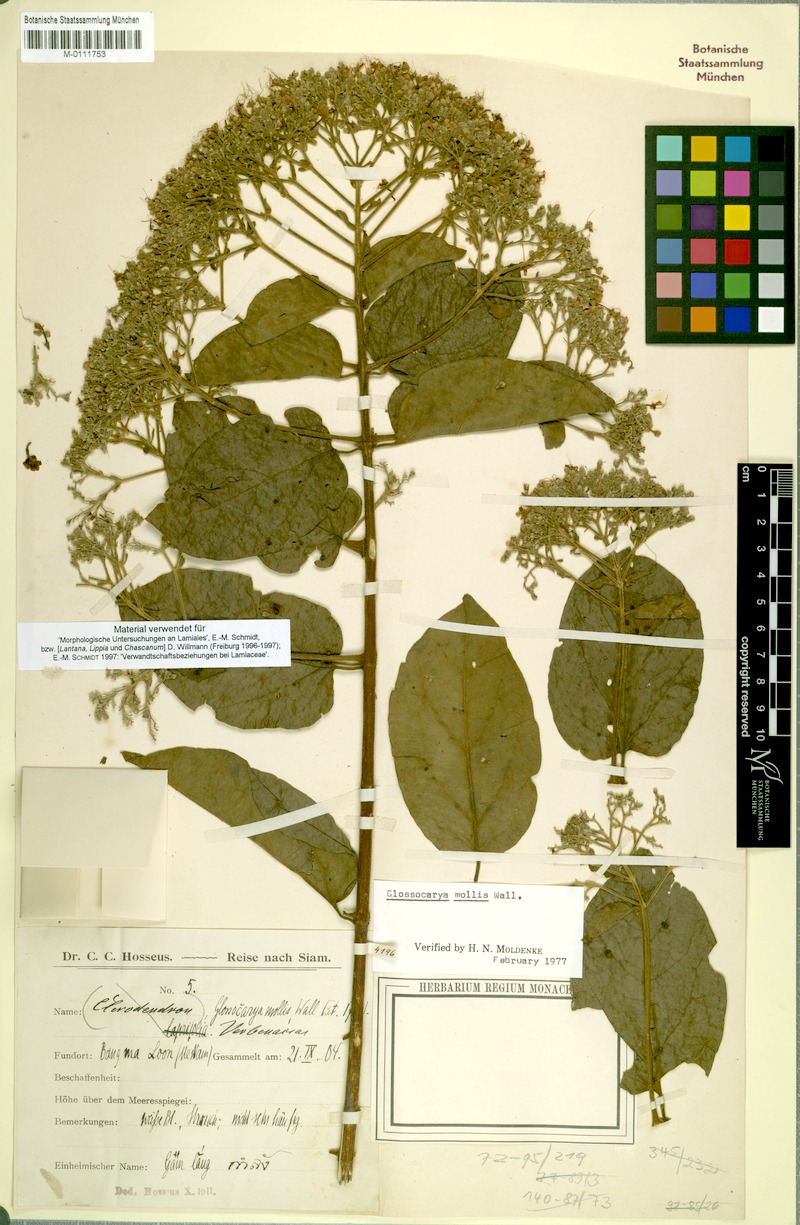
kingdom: Plantae
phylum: Tracheophyta
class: Magnoliopsida
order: Lamiales
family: Lamiaceae
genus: Glossocarya
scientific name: Glossocarya mollis
